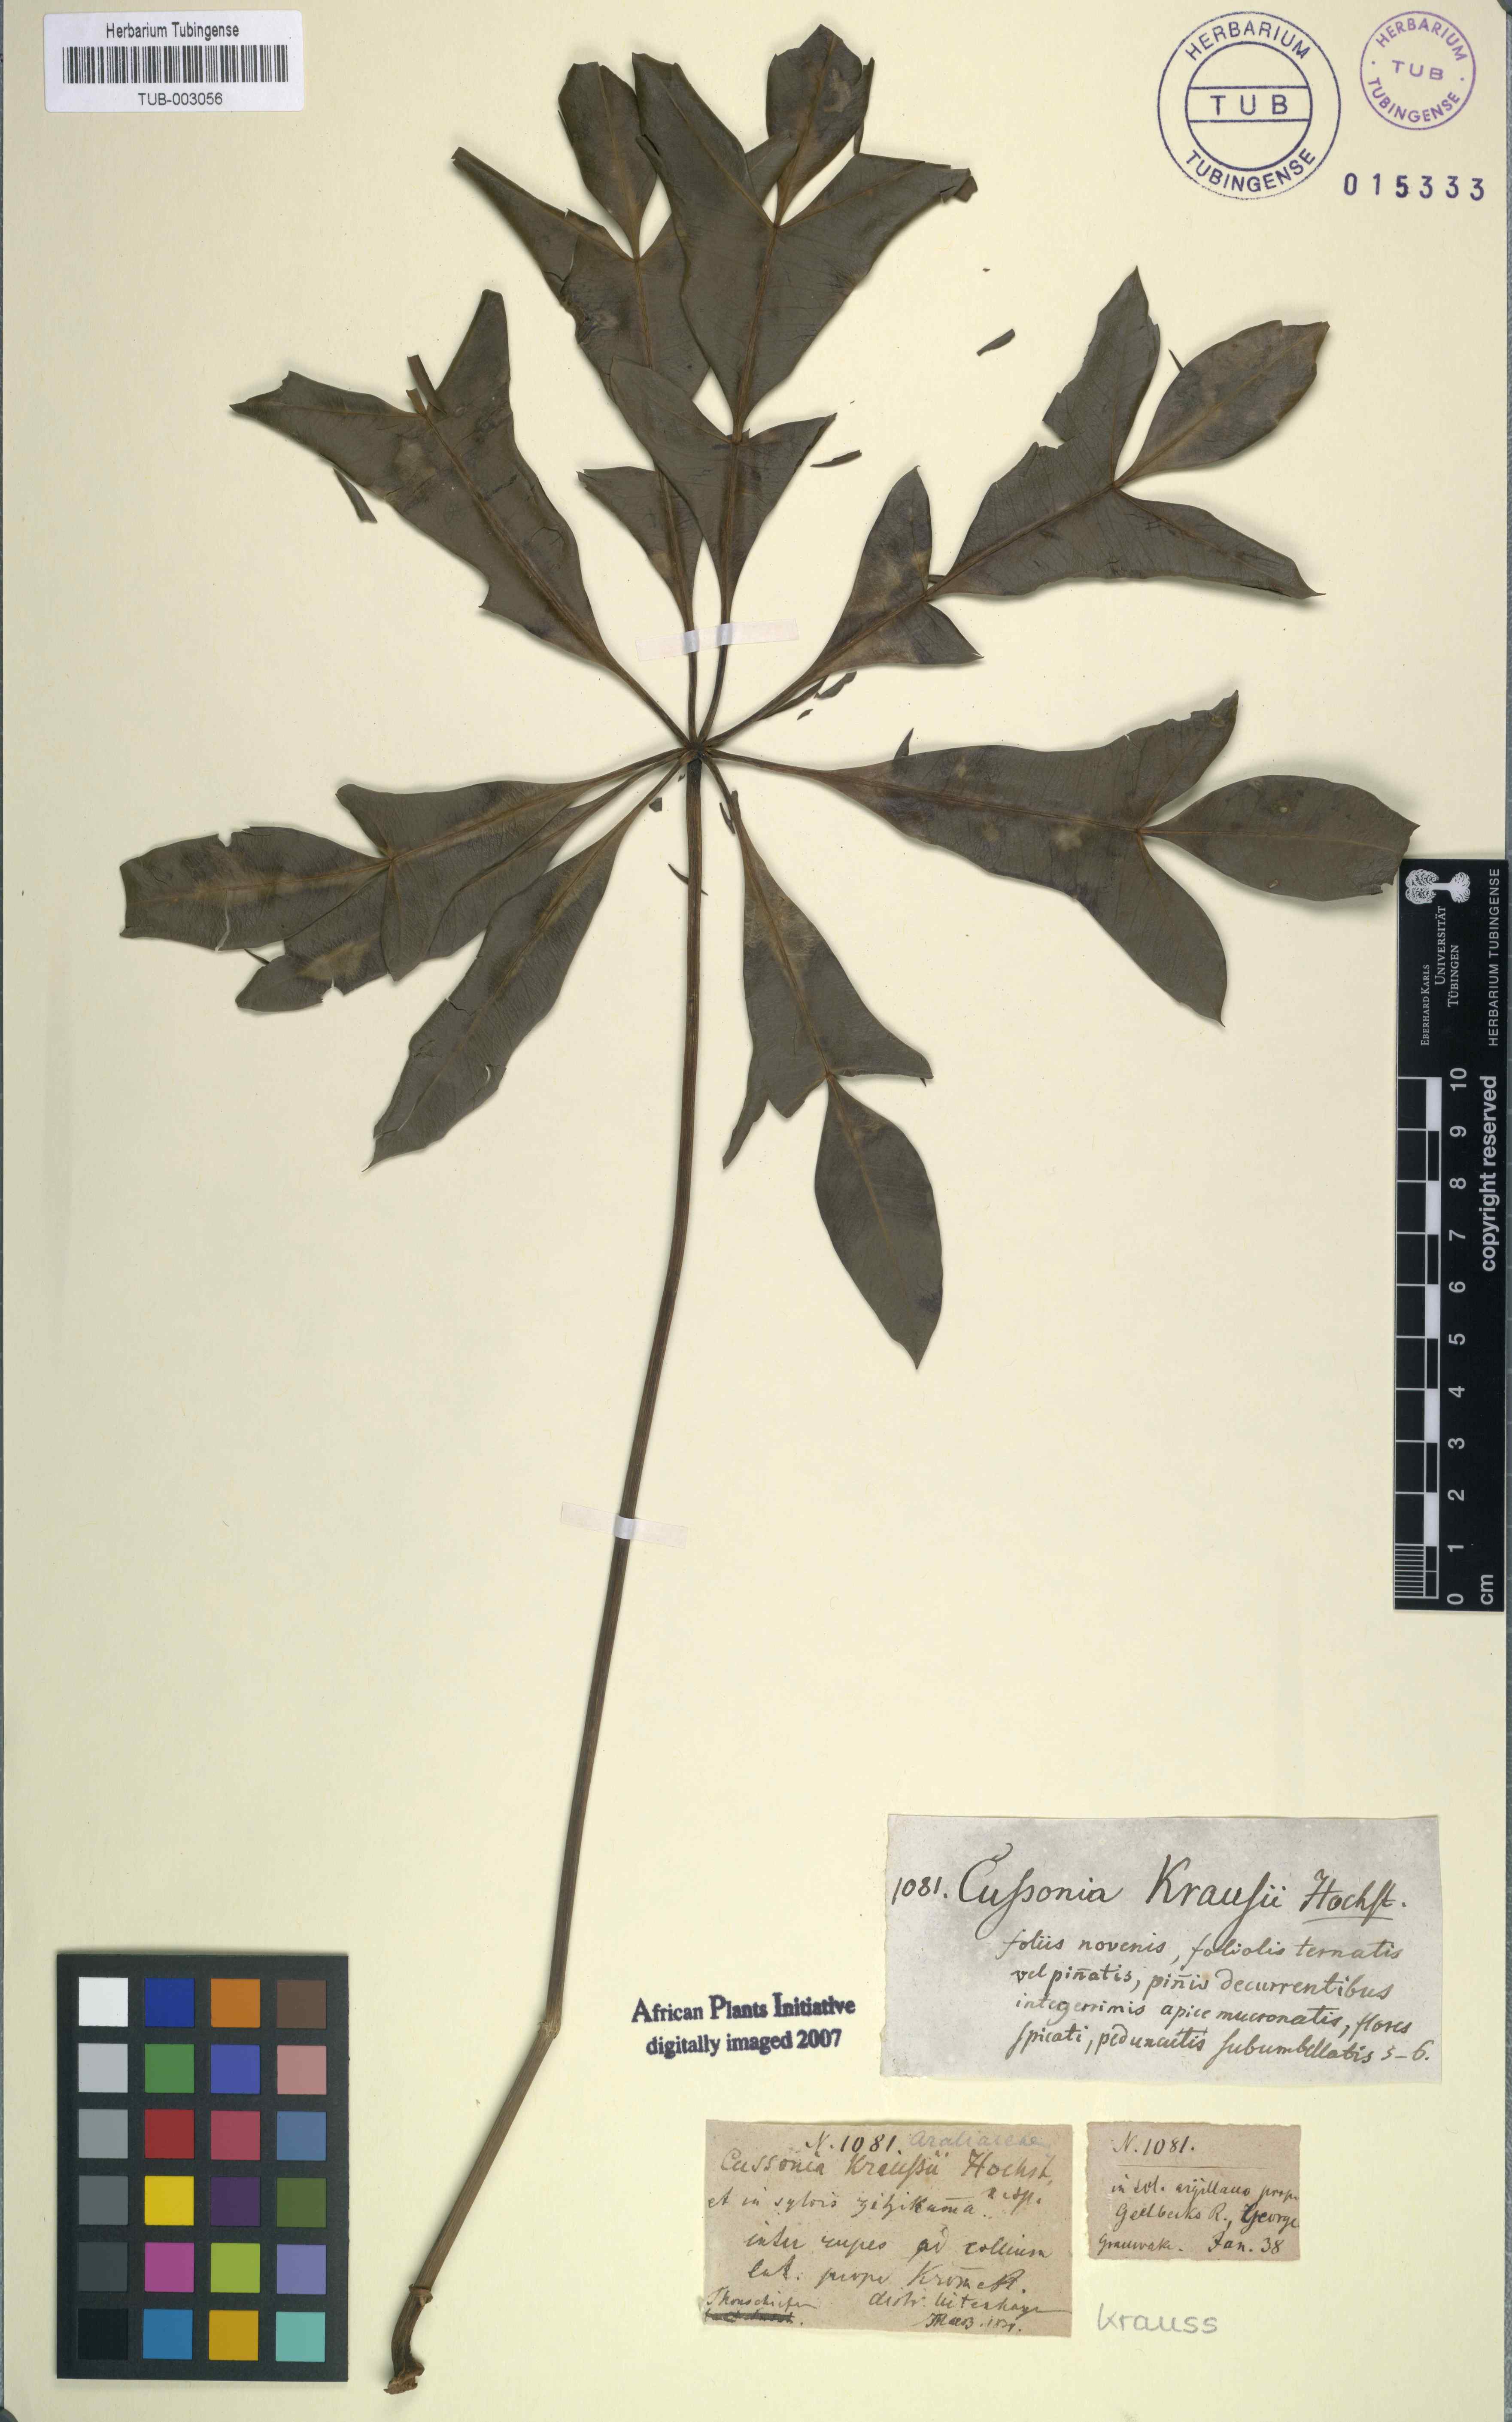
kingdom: Plantae
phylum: Tracheophyta
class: Magnoliopsida
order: Apiales
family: Araliaceae
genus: Cussonia
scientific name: Cussonia spicata
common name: Common cabbagetree
